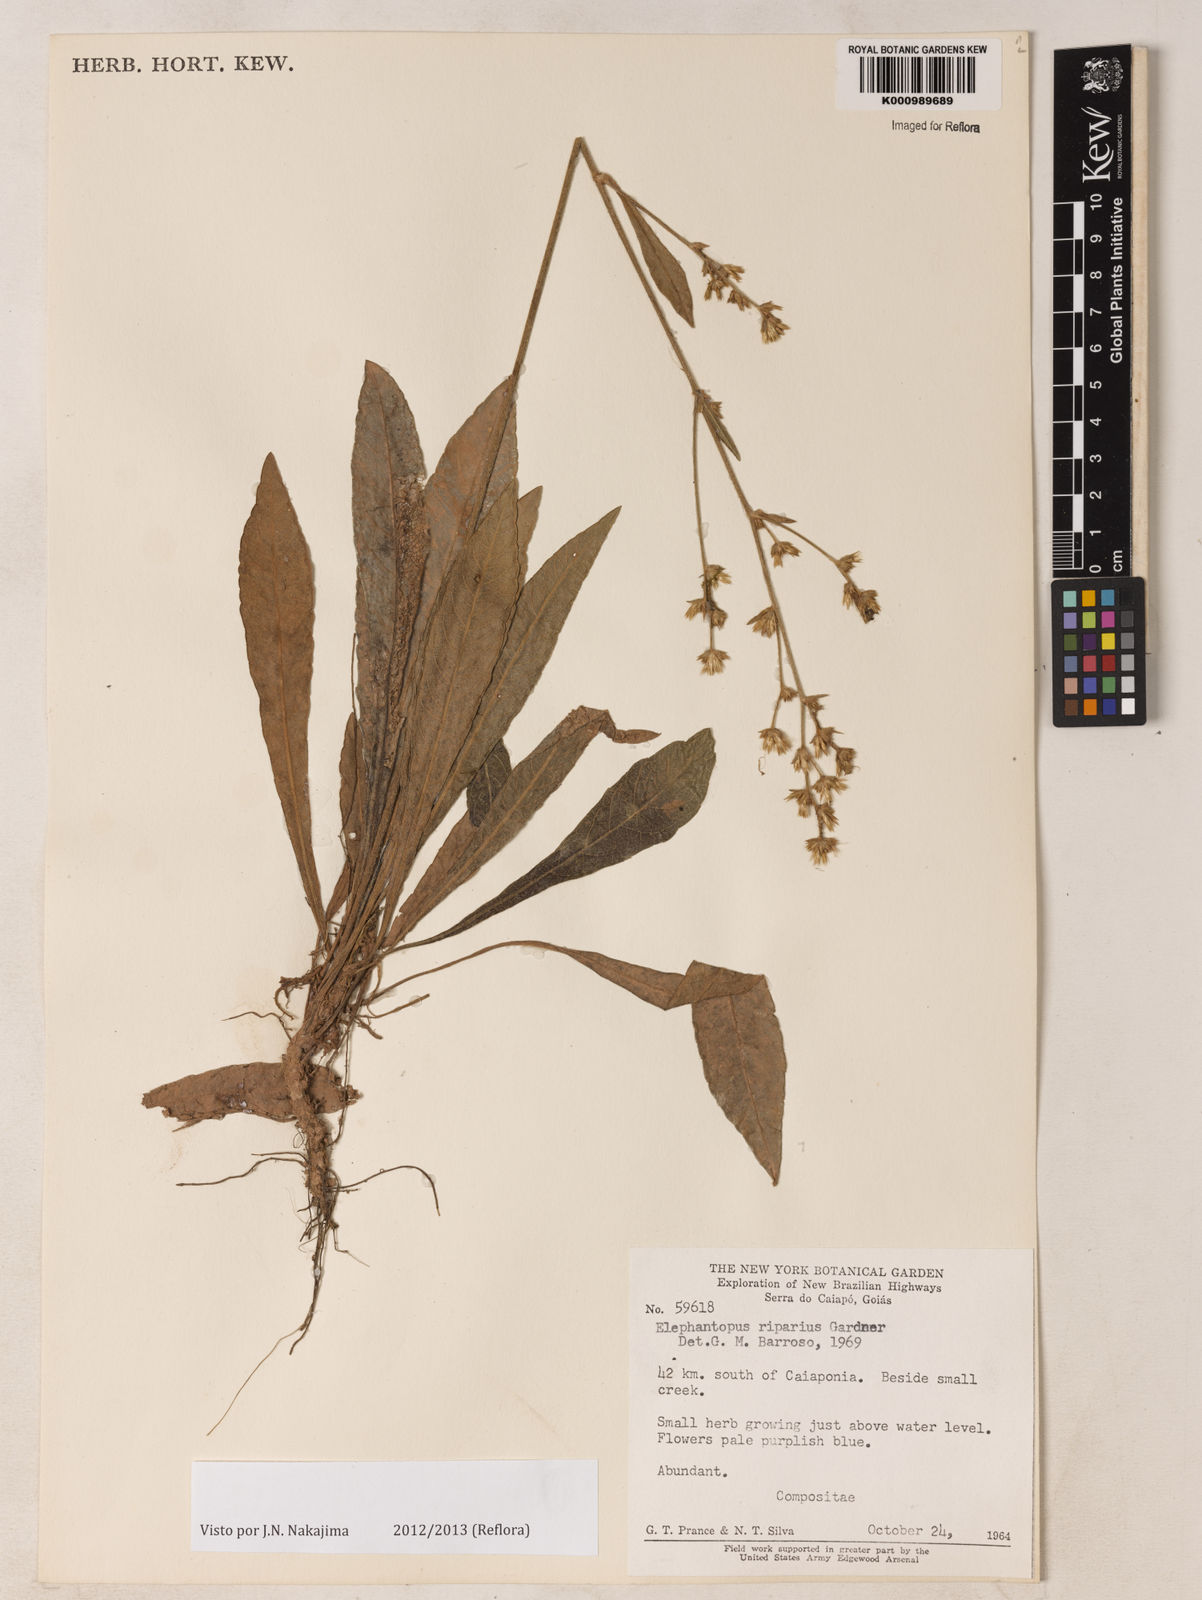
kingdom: Plantae
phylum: Tracheophyta
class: Magnoliopsida
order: Asterales
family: Asteraceae
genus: Elephantopus
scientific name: Elephantopus riparius
